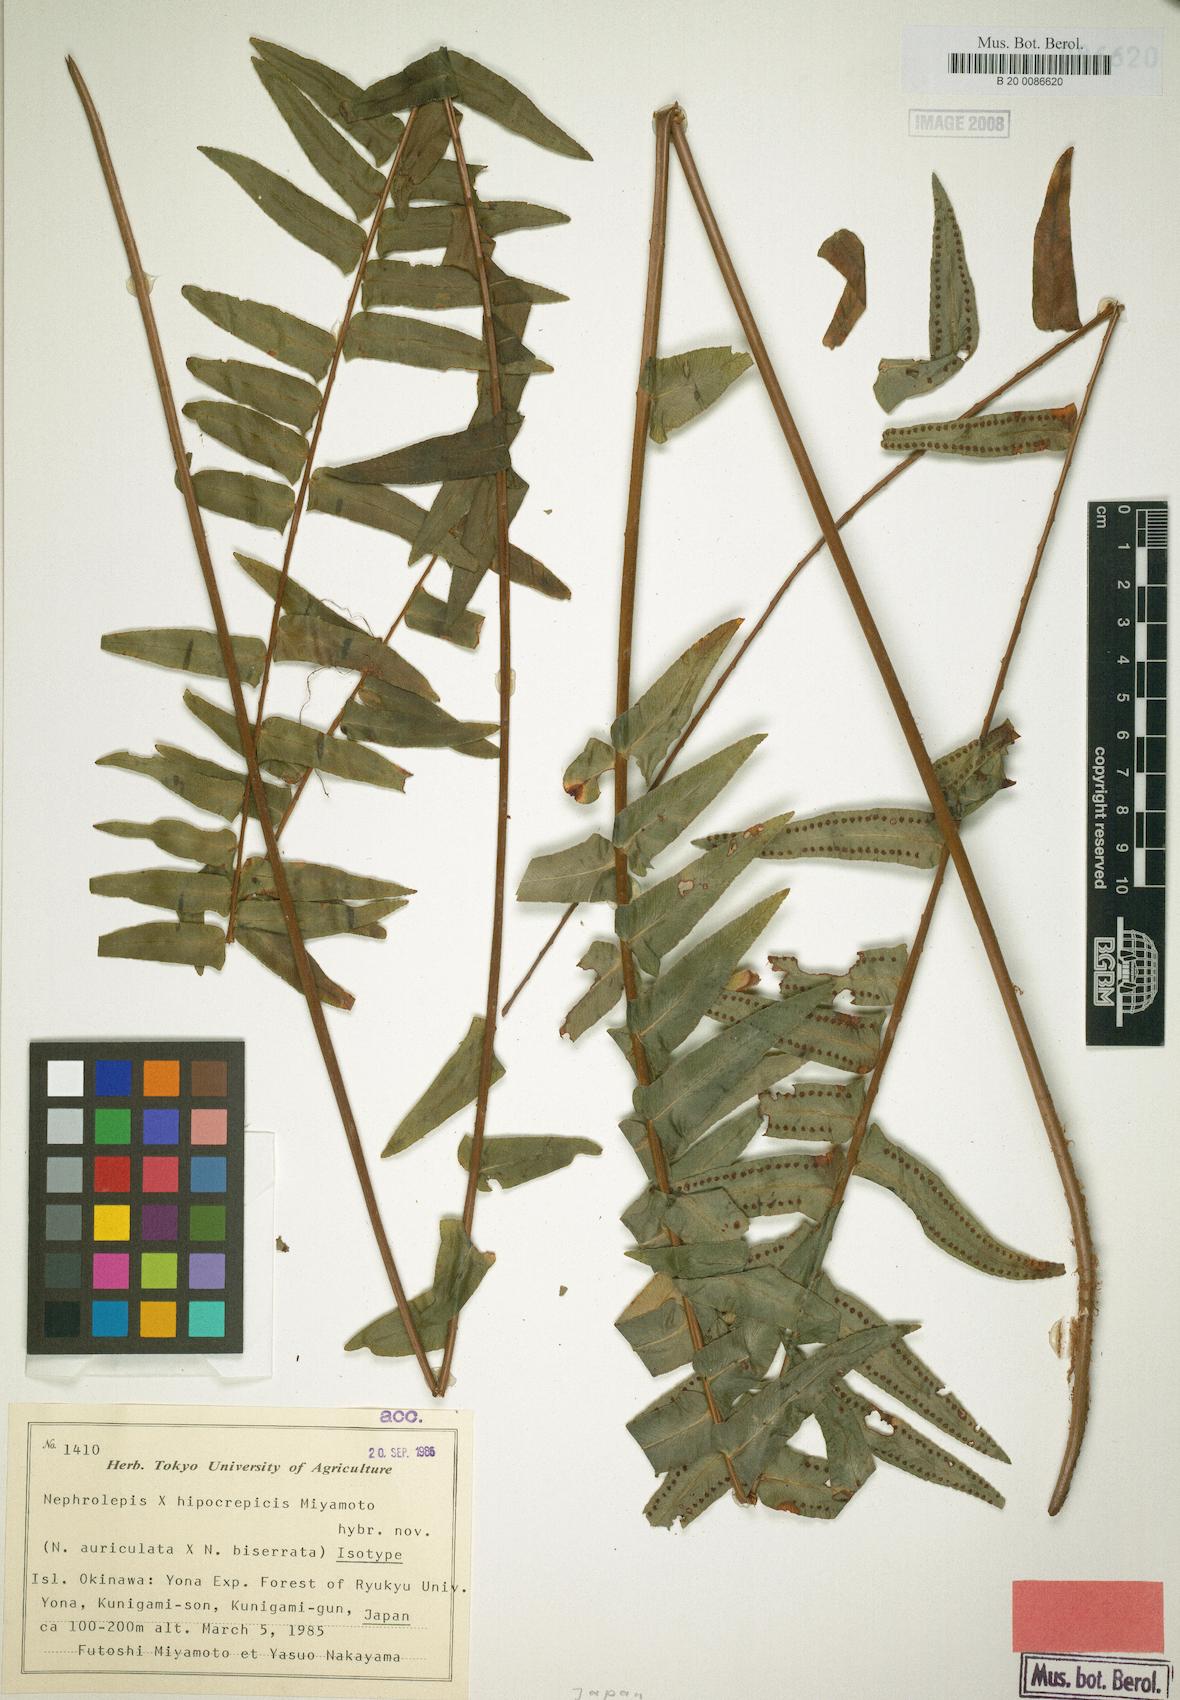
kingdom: Plantae
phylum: Tracheophyta
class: Polypodiopsida
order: Polypodiales
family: Nephrolepidaceae
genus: Nephrolepis
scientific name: Nephrolepis hippocrepicis
